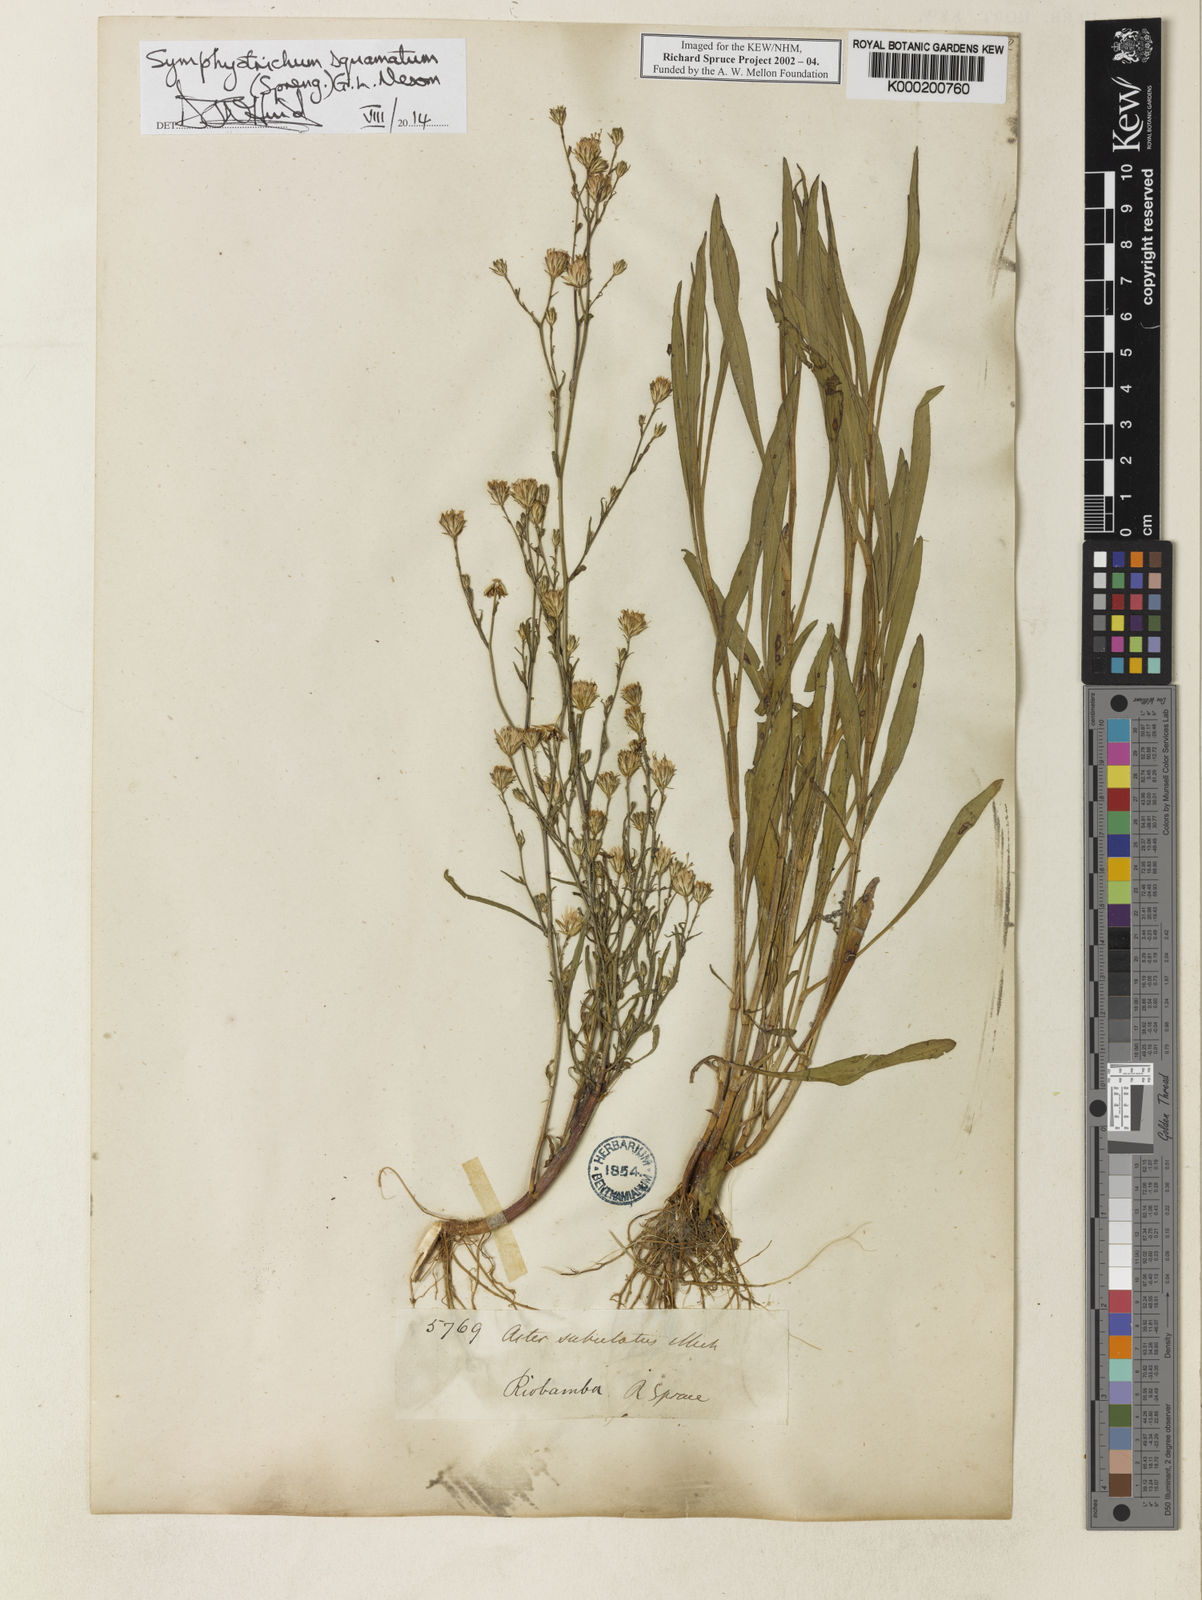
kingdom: Plantae
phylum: Tracheophyta
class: Magnoliopsida
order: Asterales
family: Asteraceae
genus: Symphyotrichum
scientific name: Symphyotrichum squamatum
